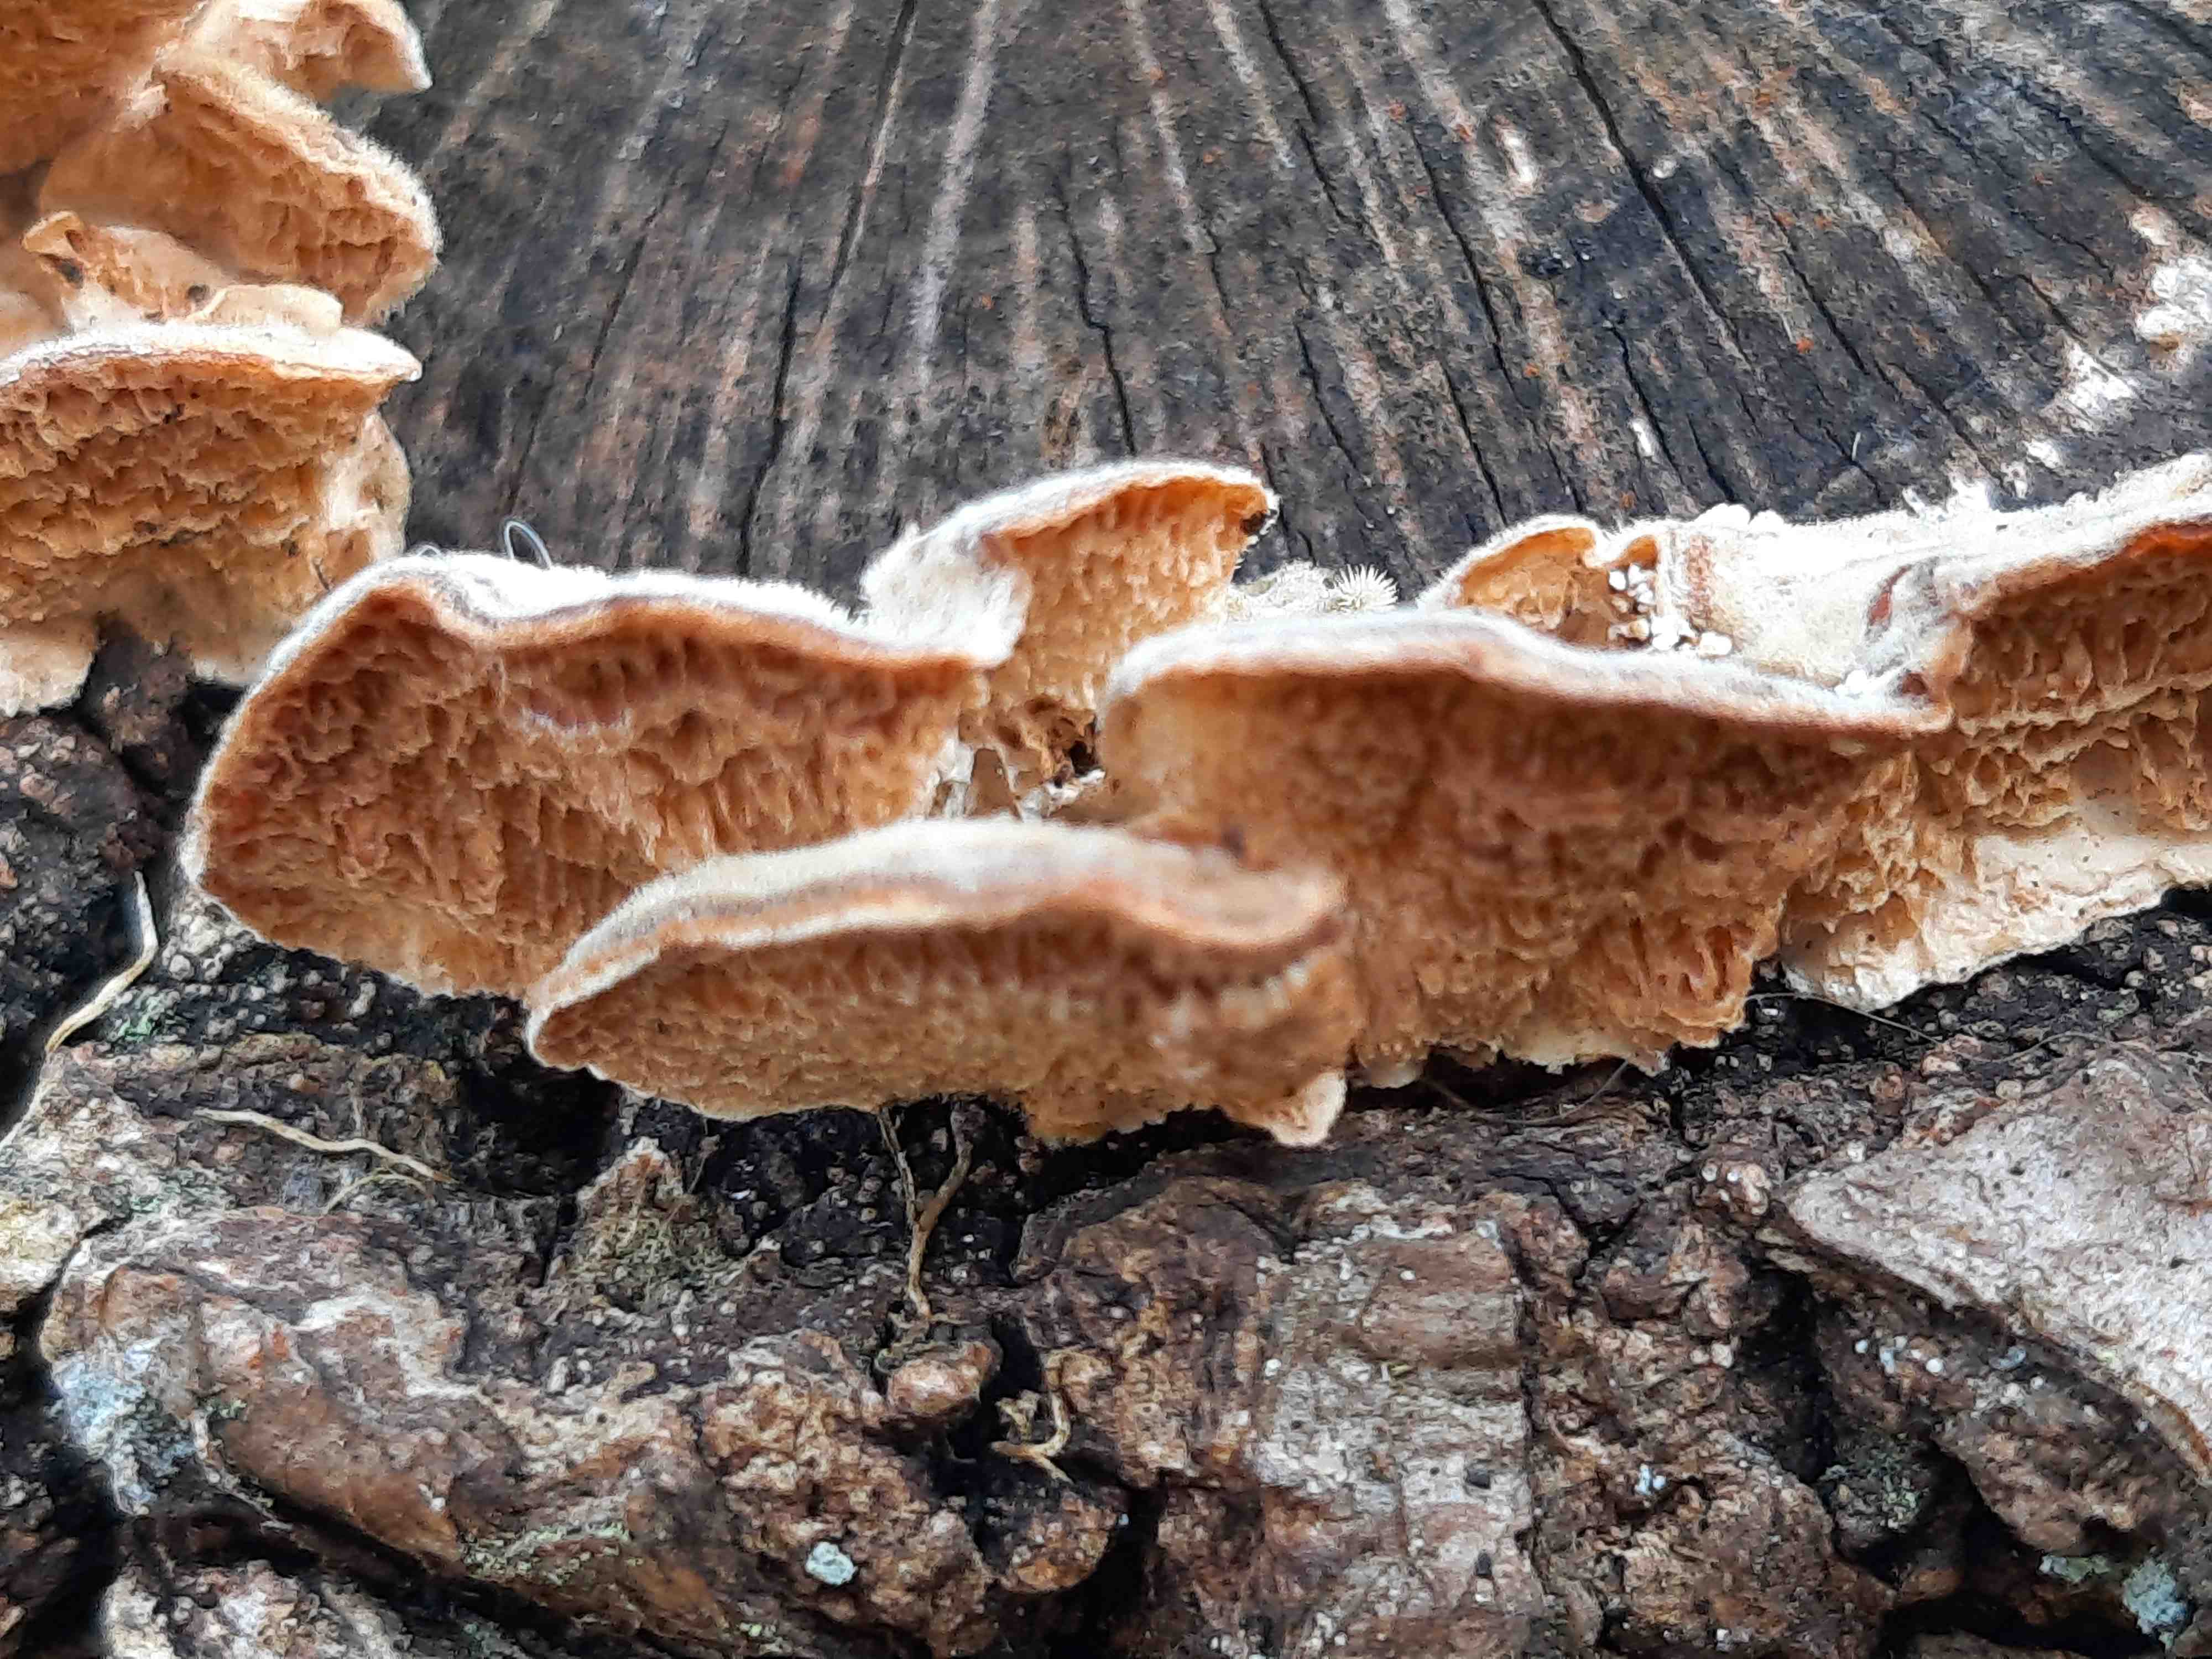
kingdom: Fungi
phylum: Basidiomycota
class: Agaricomycetes
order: Polyporales
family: Polyporaceae
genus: Trametes
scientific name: Trametes versicolor
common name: broget læderporesvamp
